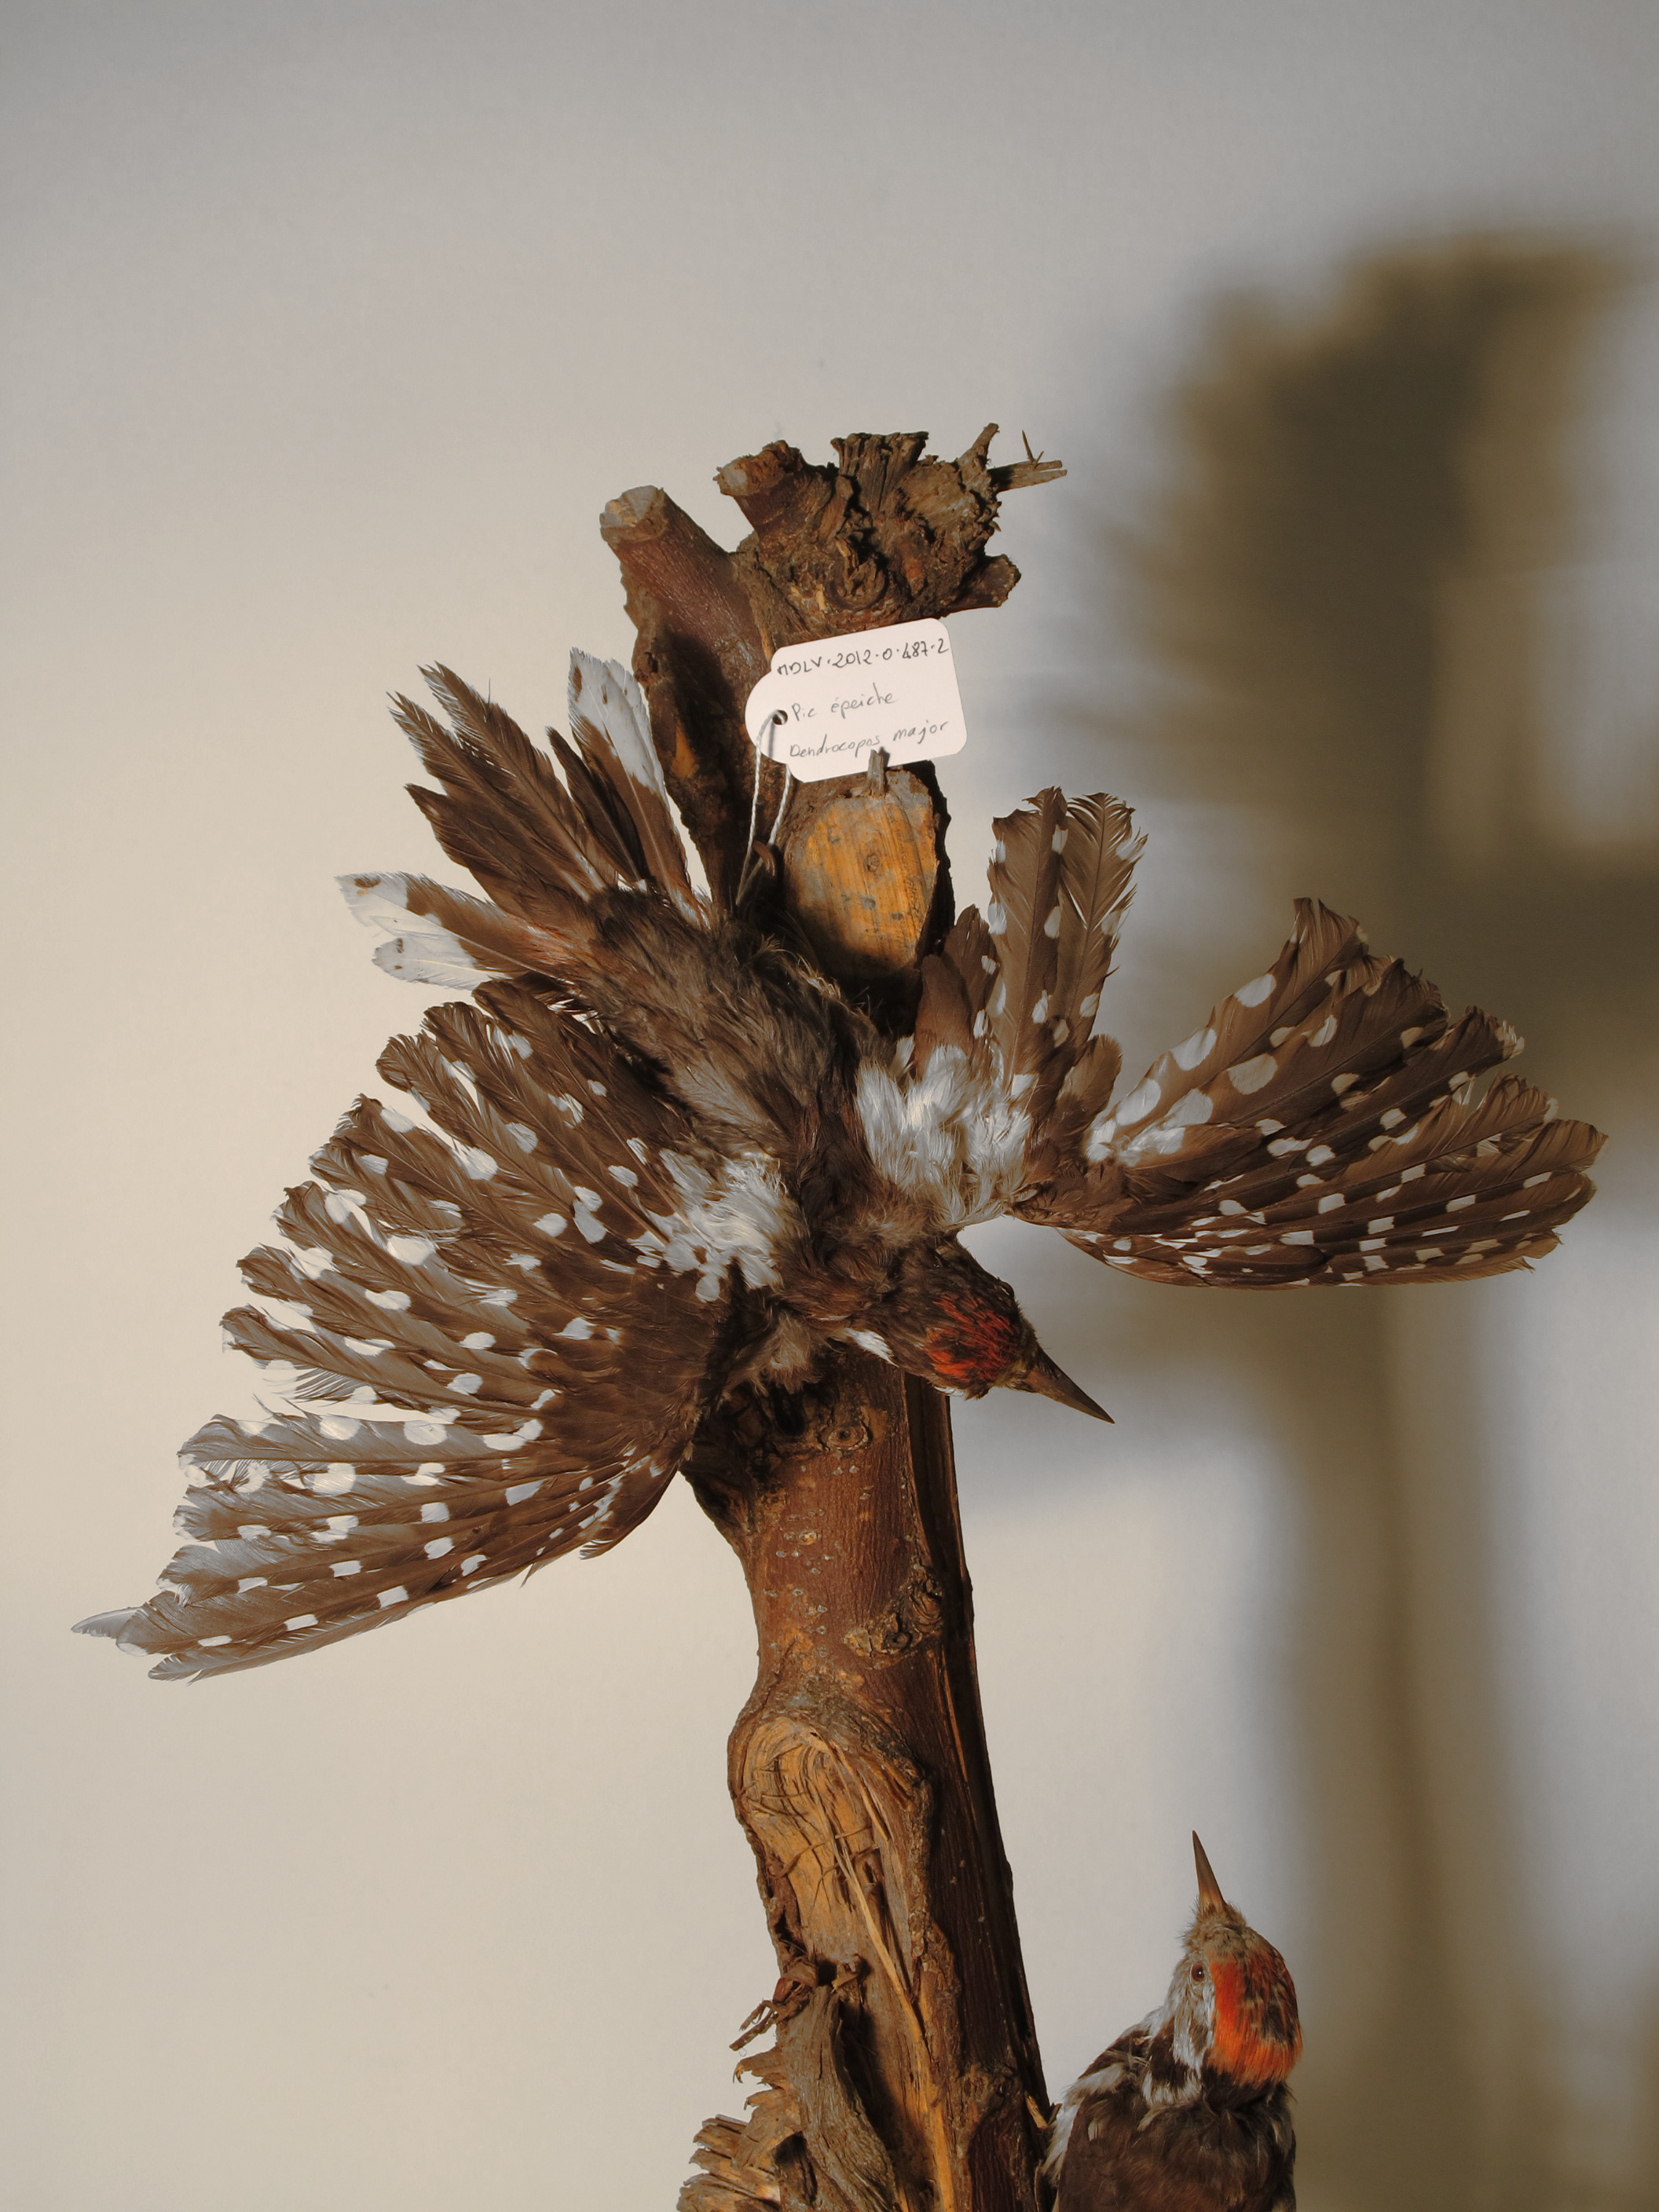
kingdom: Animalia
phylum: Chordata
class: Aves
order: Piciformes
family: Picidae
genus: Dendrocopos
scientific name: Dendrocopos major
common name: Great Spotted Woodpecker
